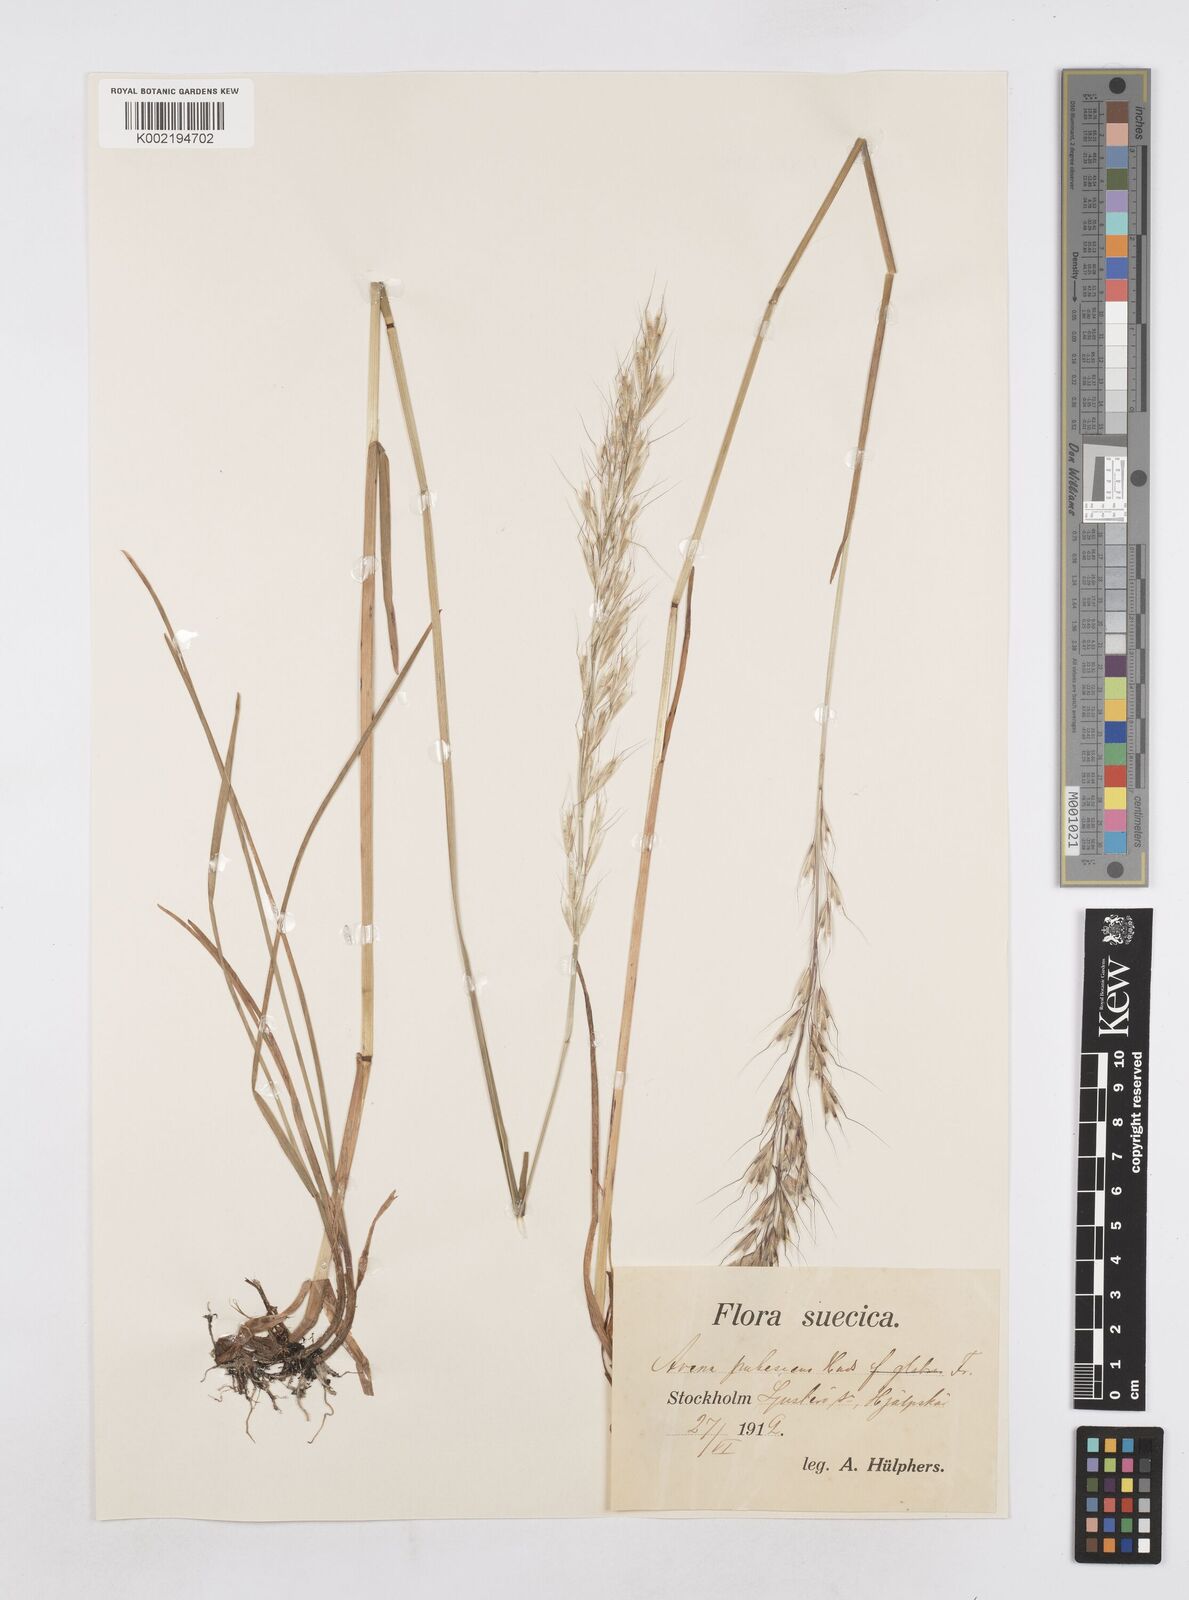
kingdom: Plantae
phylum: Tracheophyta
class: Liliopsida
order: Poales
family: Poaceae
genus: Avenula
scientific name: Avenula pubescens
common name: Downy alpine oatgrass
